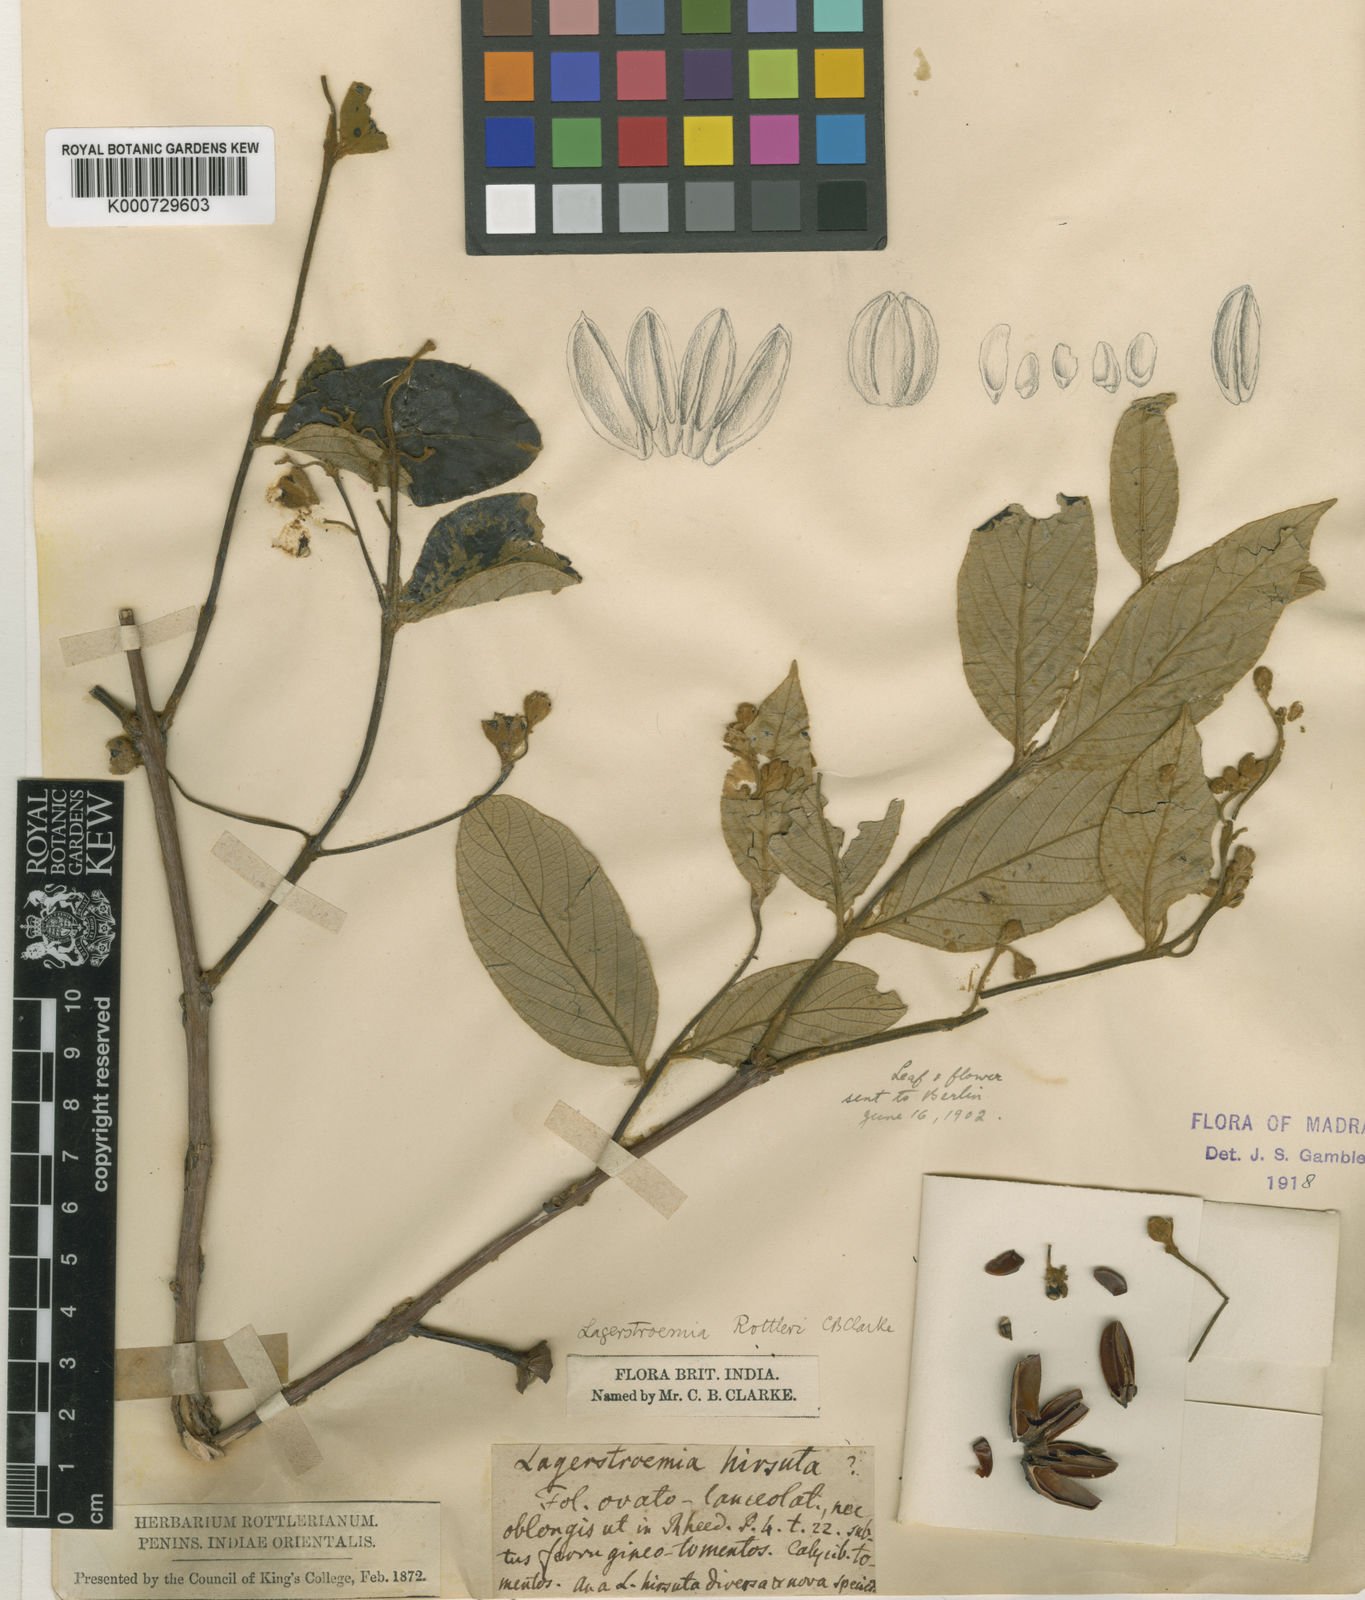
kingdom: Plantae
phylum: Tracheophyta
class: Magnoliopsida
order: Myrtales
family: Lythraceae
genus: Lagerstroemia
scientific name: Lagerstroemia indica
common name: Crape-myrtle
